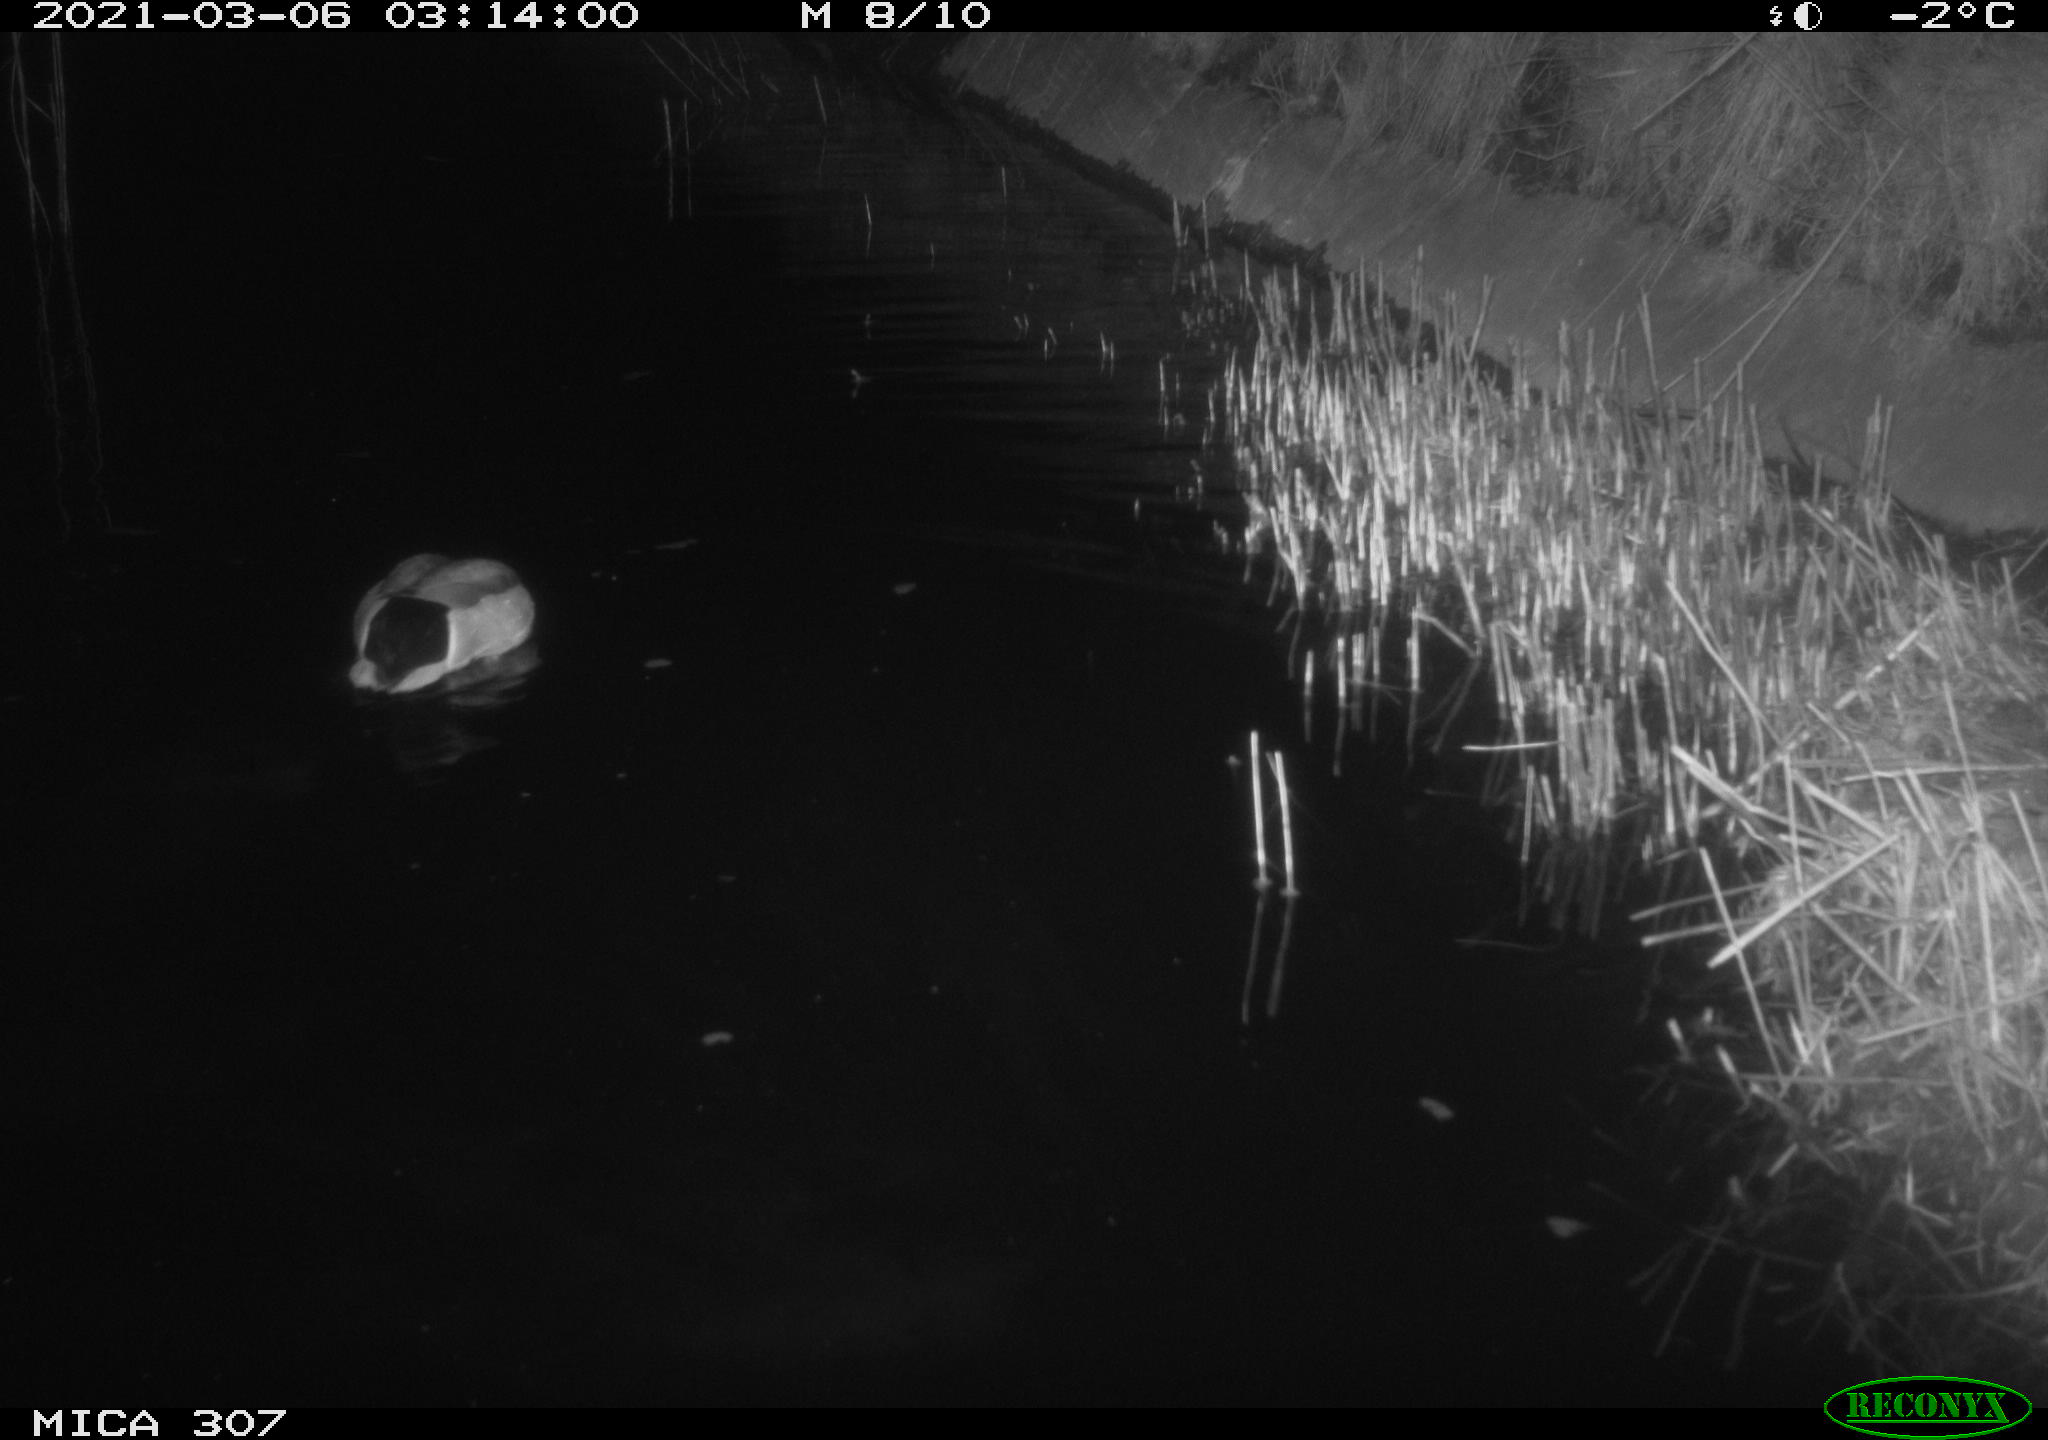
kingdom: Animalia
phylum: Chordata
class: Aves
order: Anseriformes
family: Anatidae
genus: Anas
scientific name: Anas platyrhynchos
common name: Mallard
